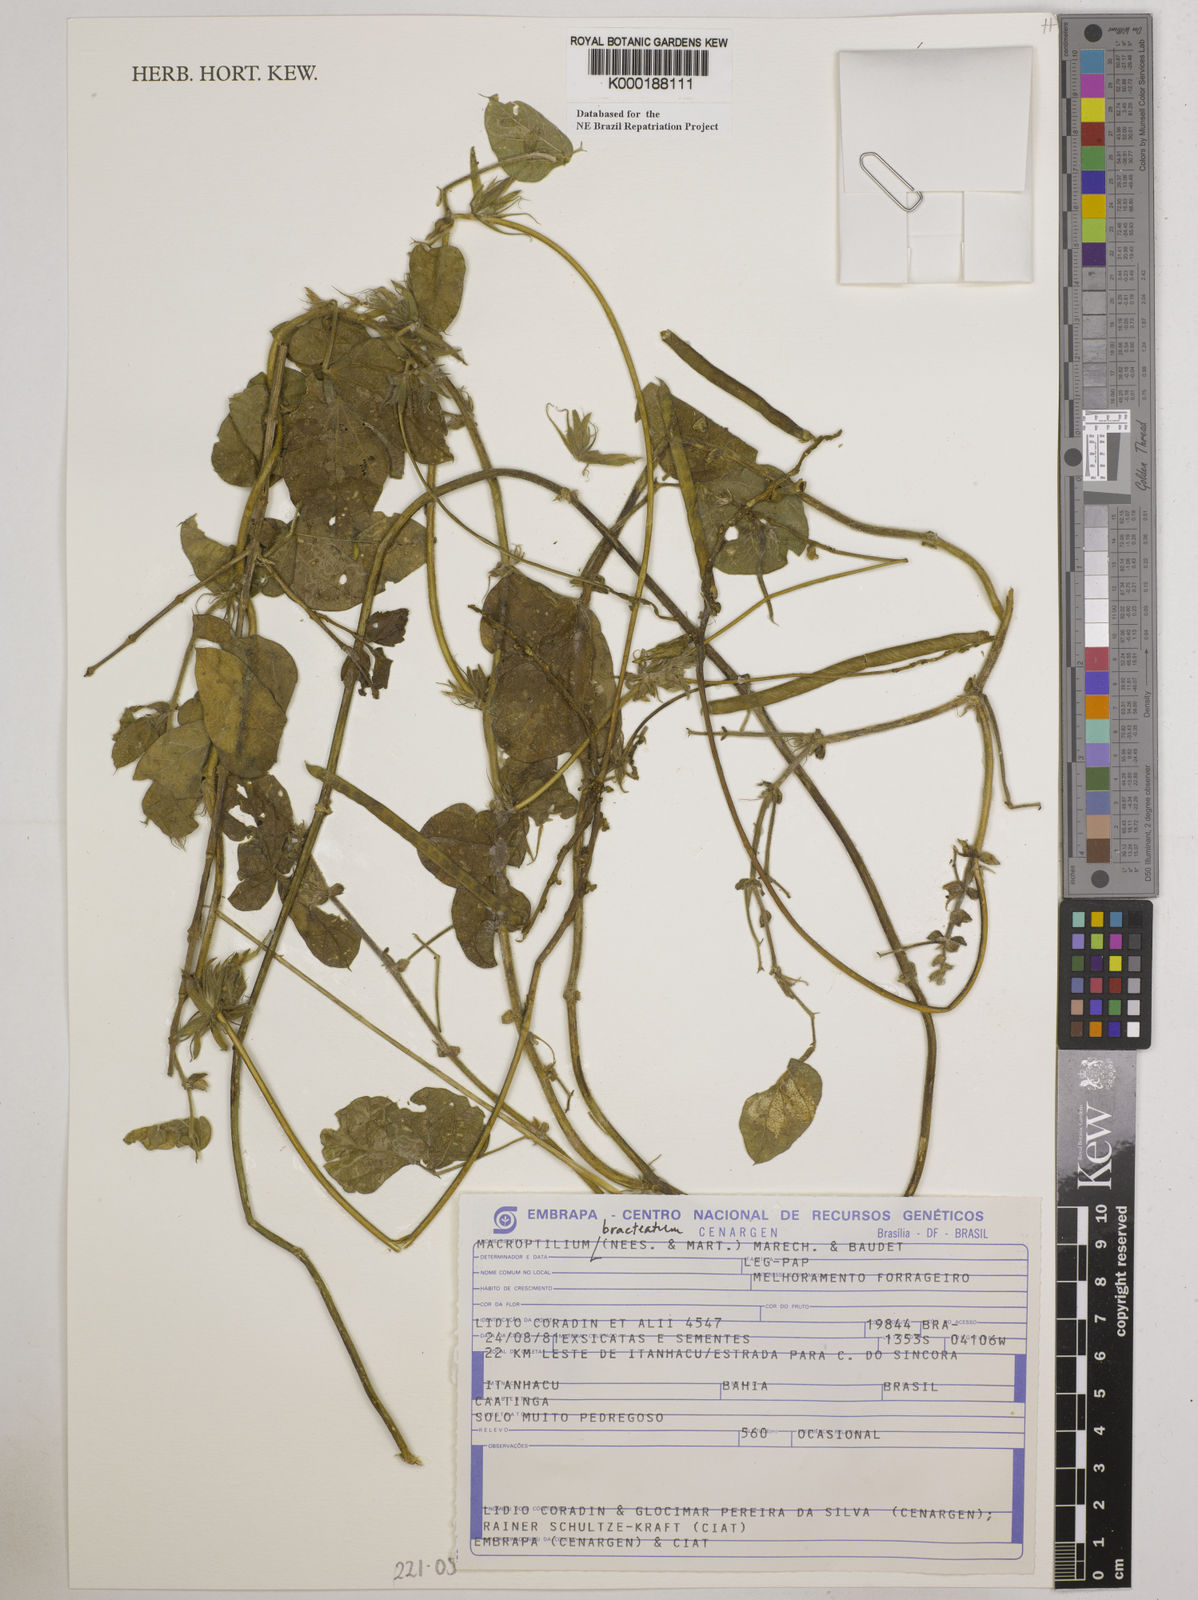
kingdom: Plantae
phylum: Tracheophyta
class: Magnoliopsida
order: Fabales
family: Fabaceae
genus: Macroptilium
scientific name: Macroptilium
